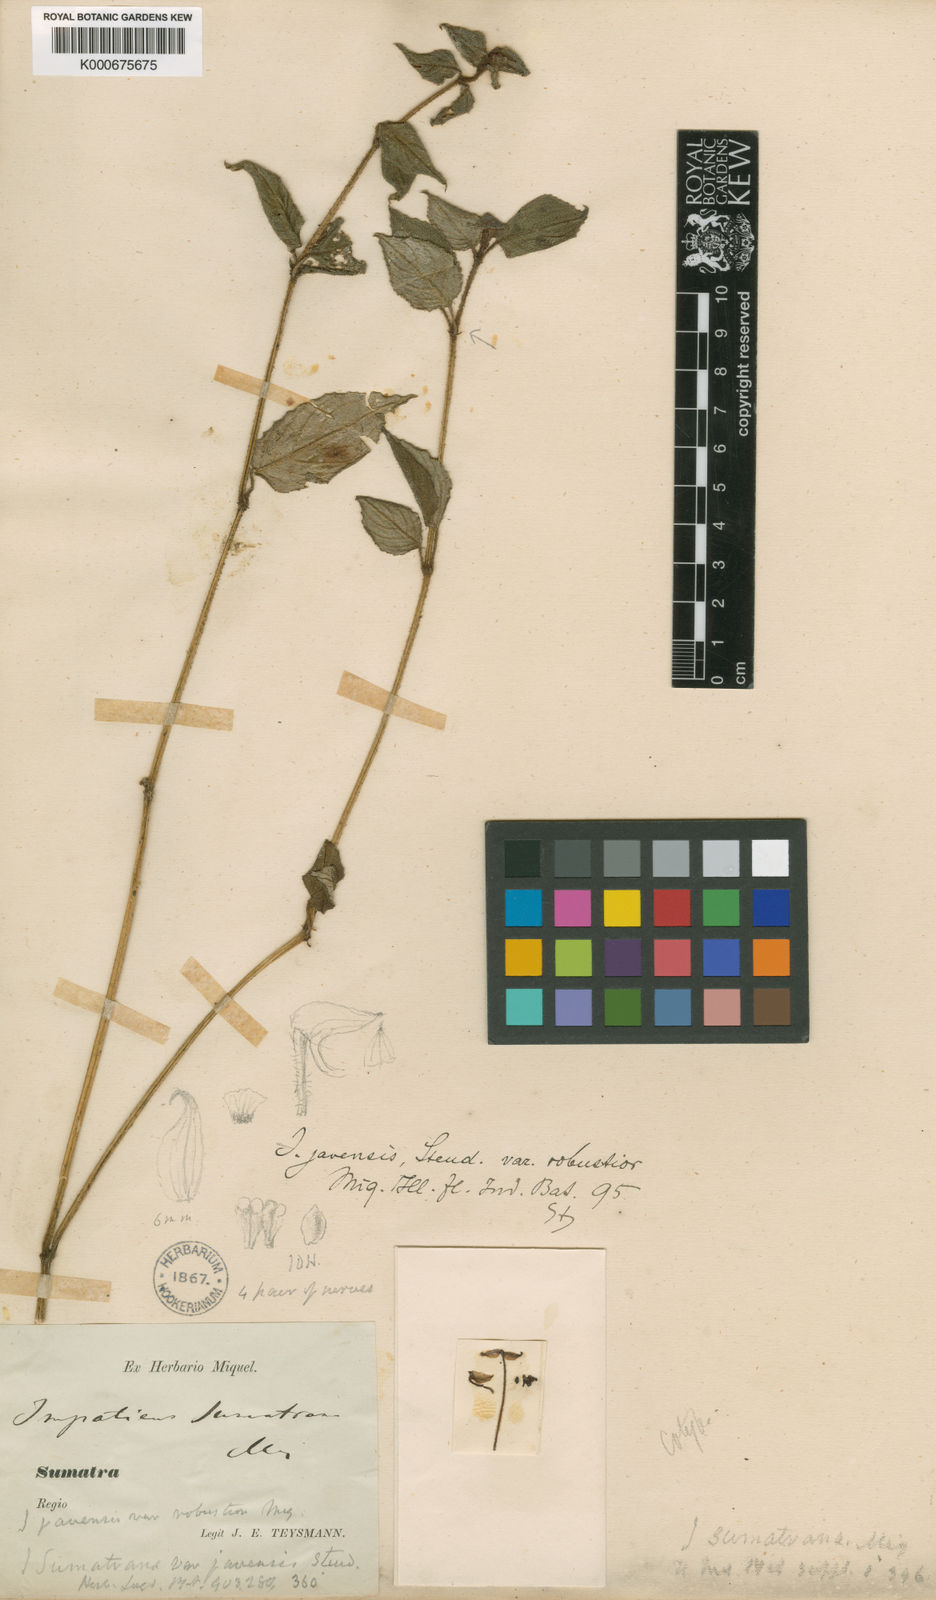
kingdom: Plantae
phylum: Tracheophyta
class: Magnoliopsida
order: Ericales
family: Balsaminaceae
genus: Impatiens
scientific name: Impatiens javensis
